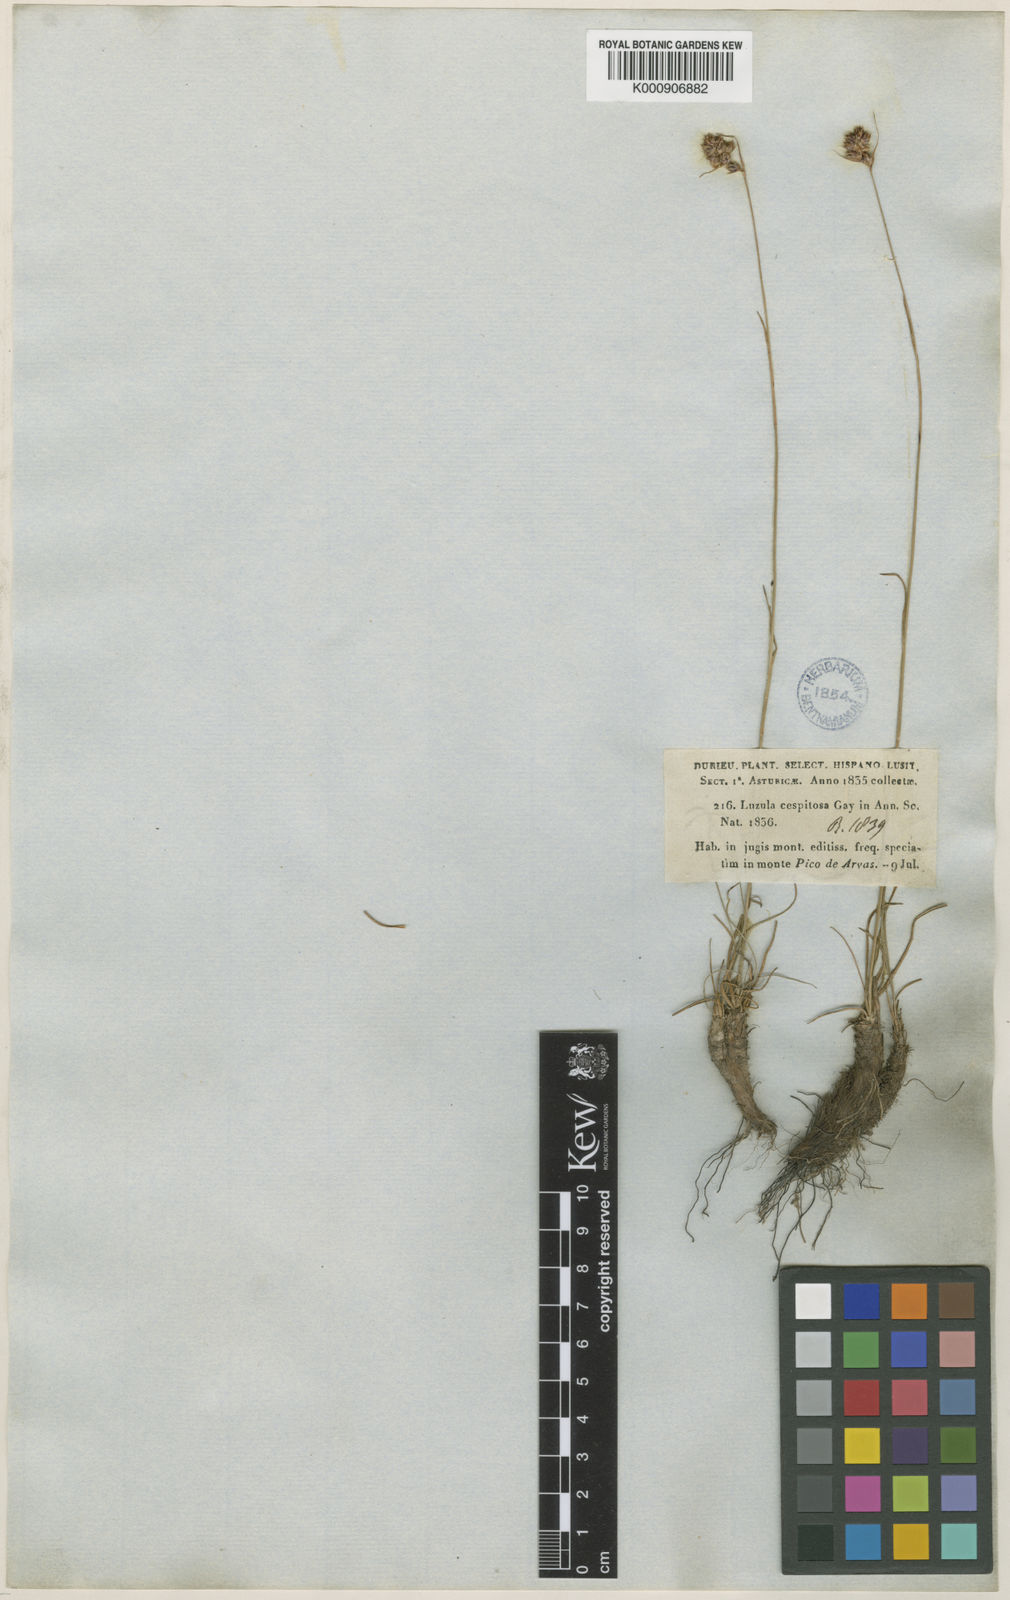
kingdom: Plantae
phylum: Tracheophyta
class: Liliopsida
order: Poales
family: Juncaceae
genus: Luzula
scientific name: Luzula
